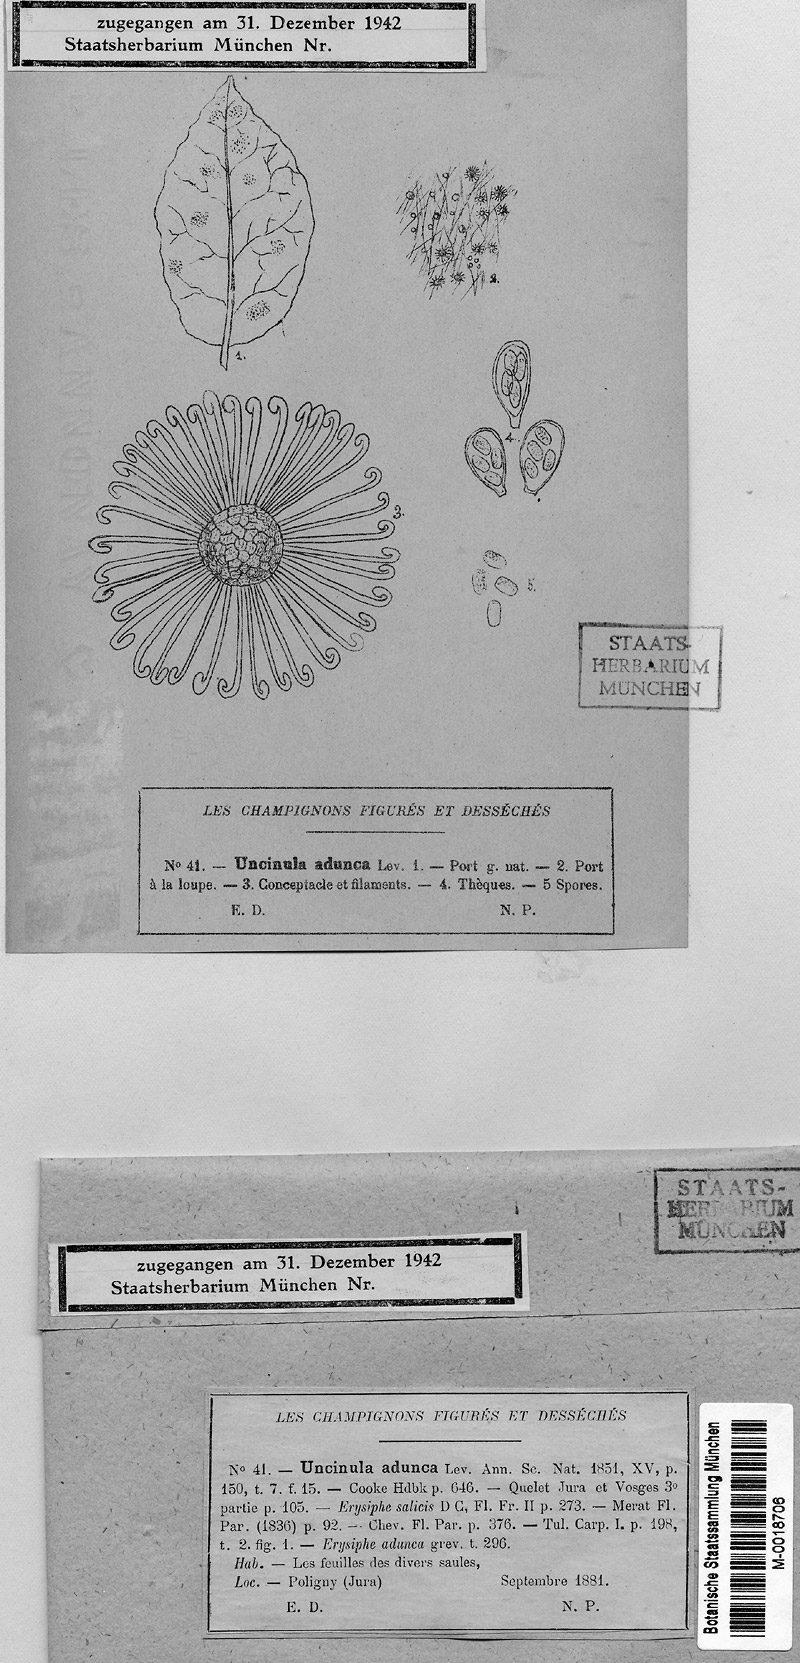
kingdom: Fungi
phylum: Ascomycota
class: Leotiomycetes
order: Helotiales
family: Erysiphaceae
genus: Erysiphe
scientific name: Erysiphe adunca
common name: Willow mildew
